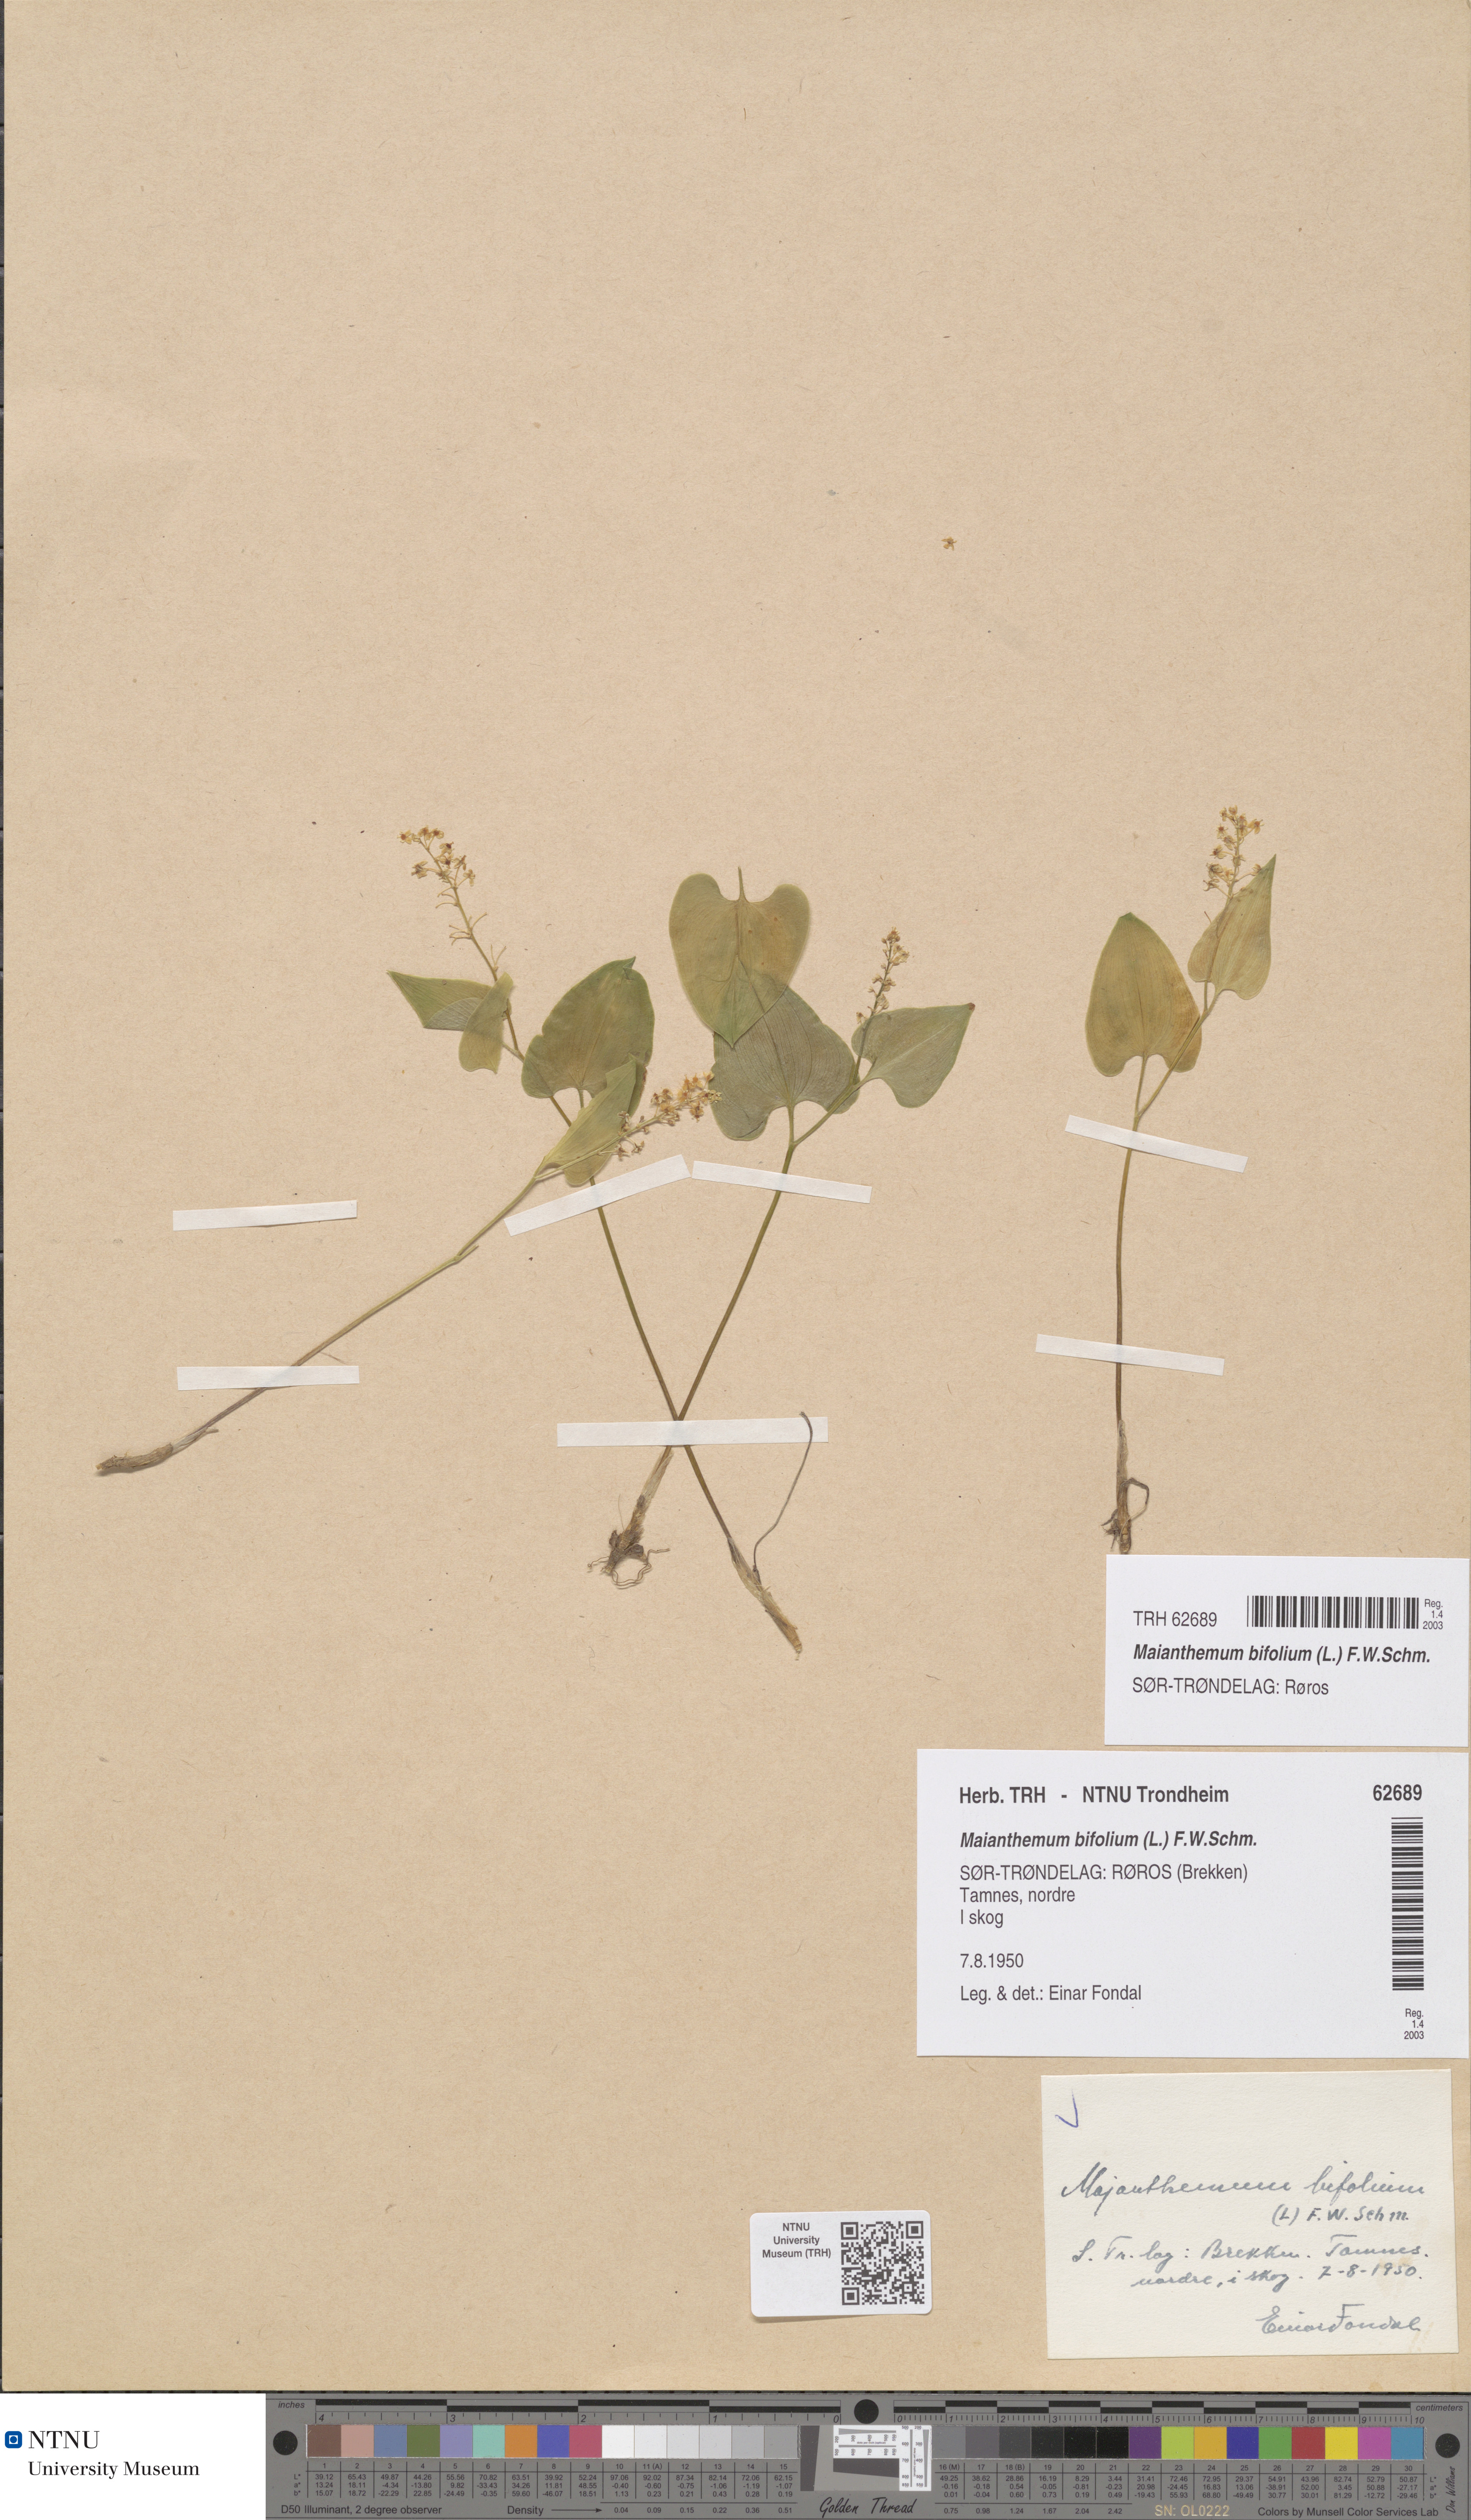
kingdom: Plantae
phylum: Tracheophyta
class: Liliopsida
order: Asparagales
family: Asparagaceae
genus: Maianthemum
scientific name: Maianthemum bifolium
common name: May lily
